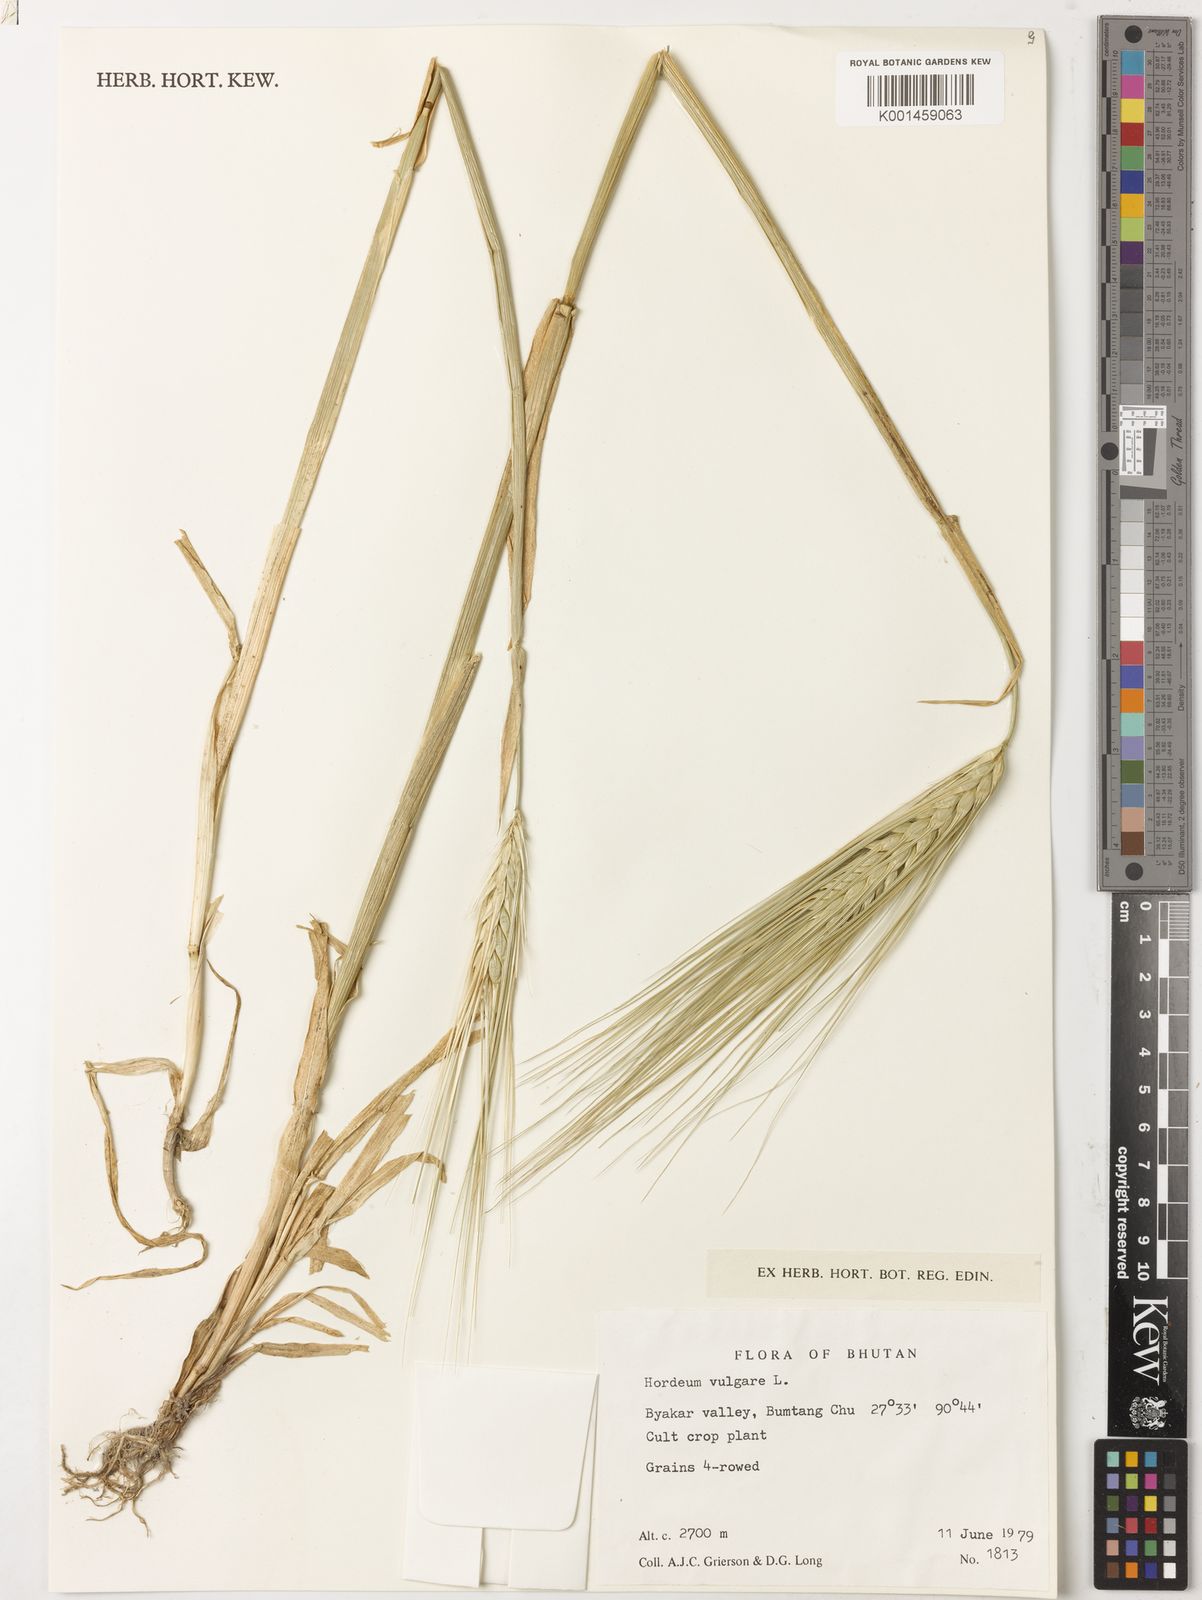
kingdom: Plantae
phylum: Tracheophyta
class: Liliopsida
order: Poales
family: Poaceae
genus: Hordeum
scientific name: Hordeum vulgare
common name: Common barley
